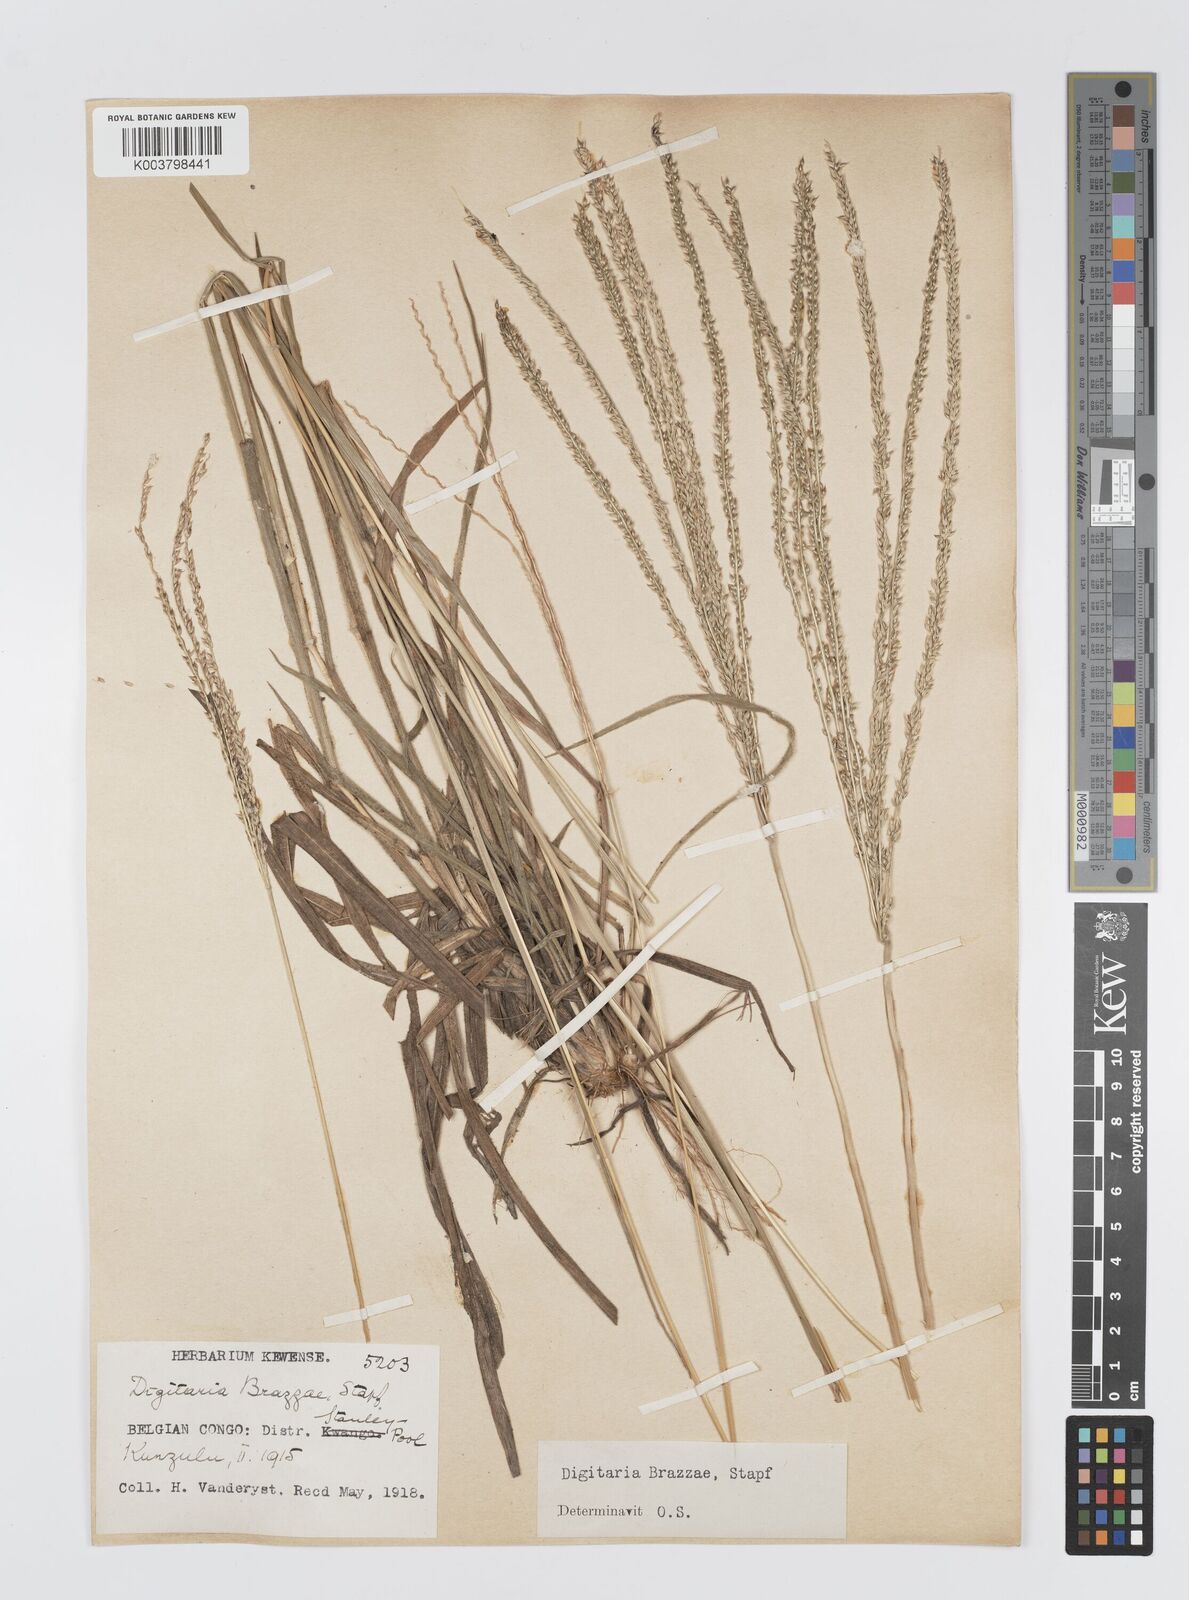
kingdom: Plantae
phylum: Tracheophyta
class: Liliopsida
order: Poales
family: Poaceae
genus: Digitaria
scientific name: Digitaria brazzae
